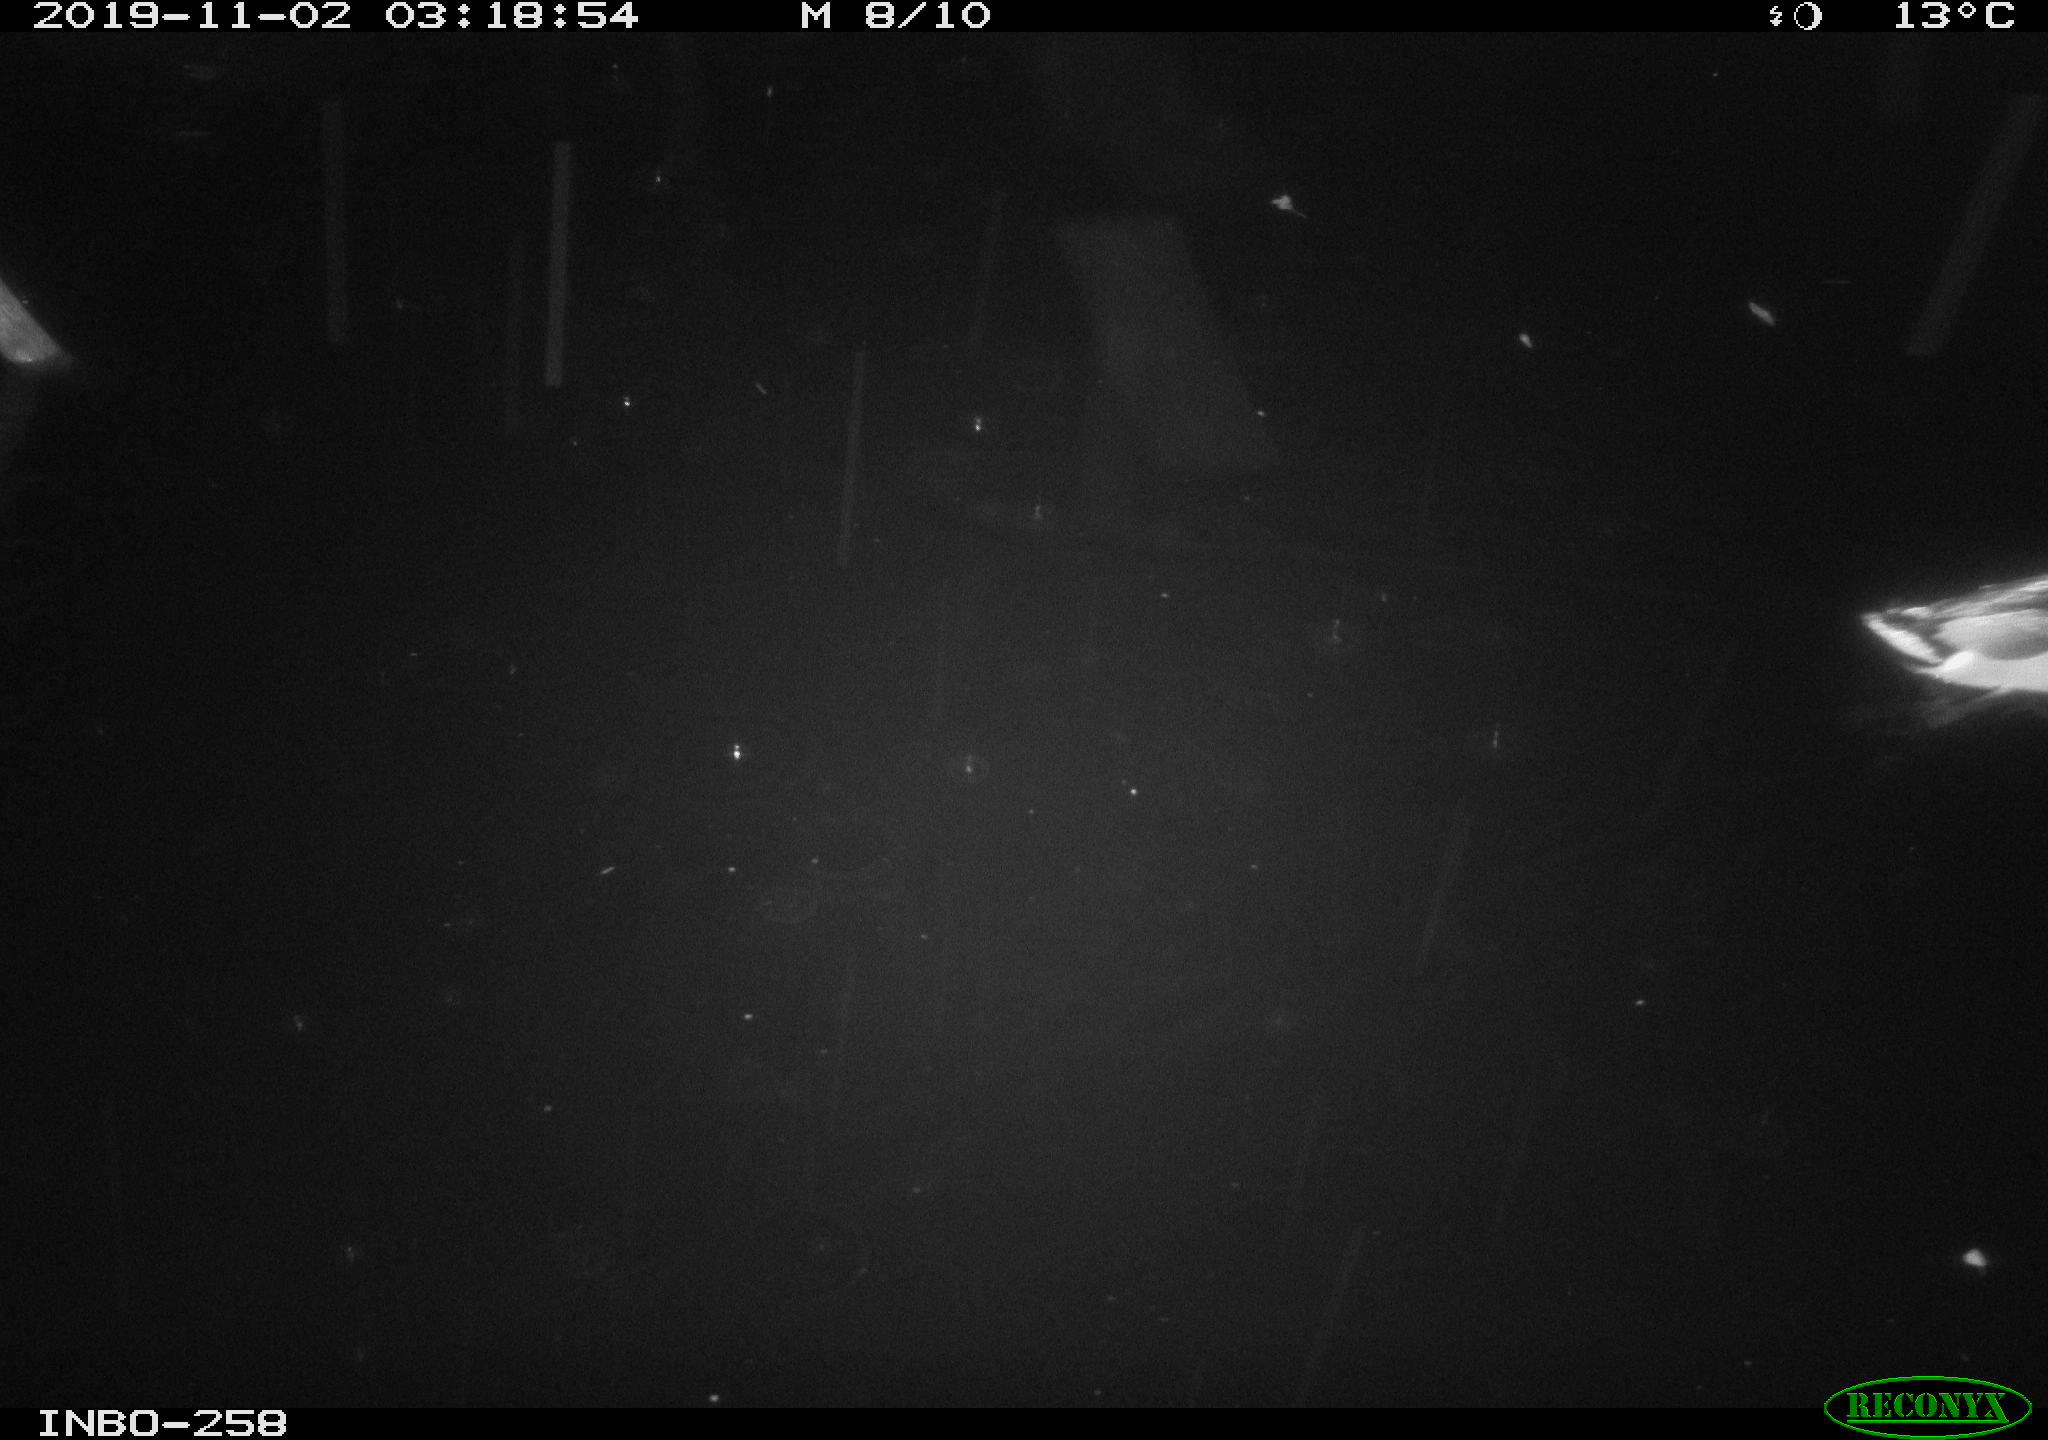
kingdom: Animalia
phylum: Chordata
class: Aves
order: Anseriformes
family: Anatidae
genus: Anas
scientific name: Anas platyrhynchos
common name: Mallard
